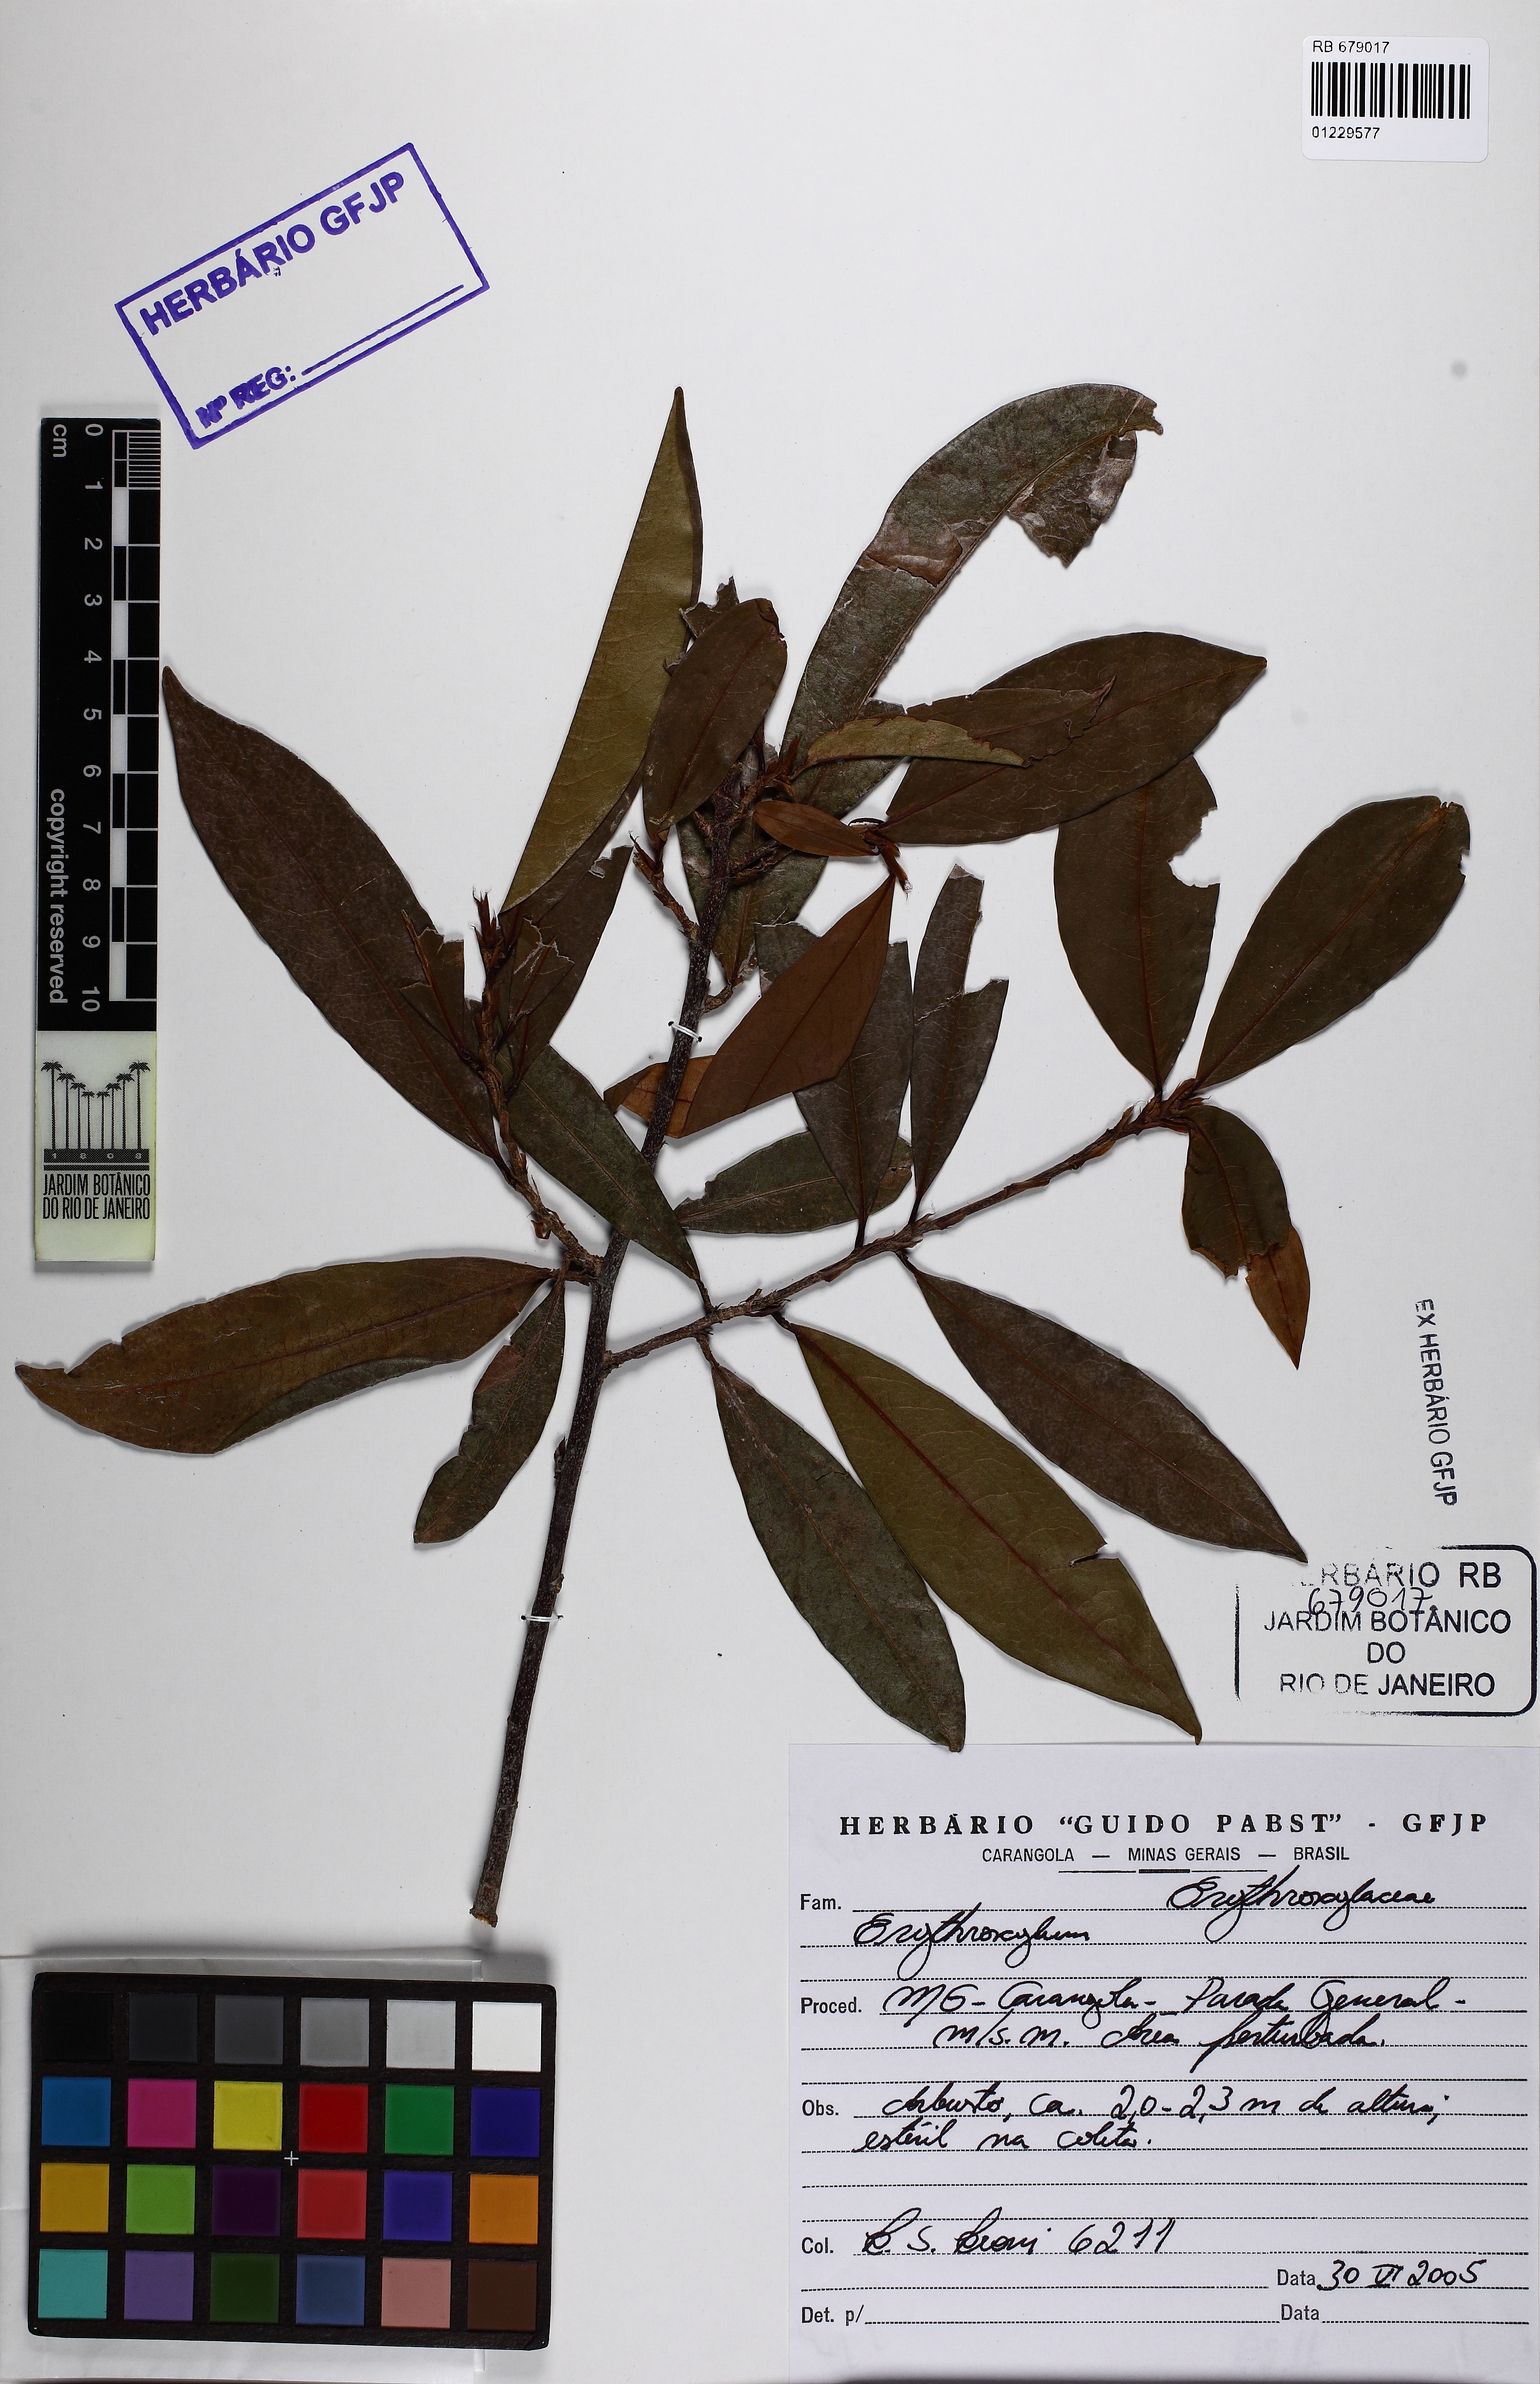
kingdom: Plantae
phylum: Tracheophyta
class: Magnoliopsida
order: Malpighiales
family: Erythroxylaceae
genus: Erythroxylum
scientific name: Erythroxylum
